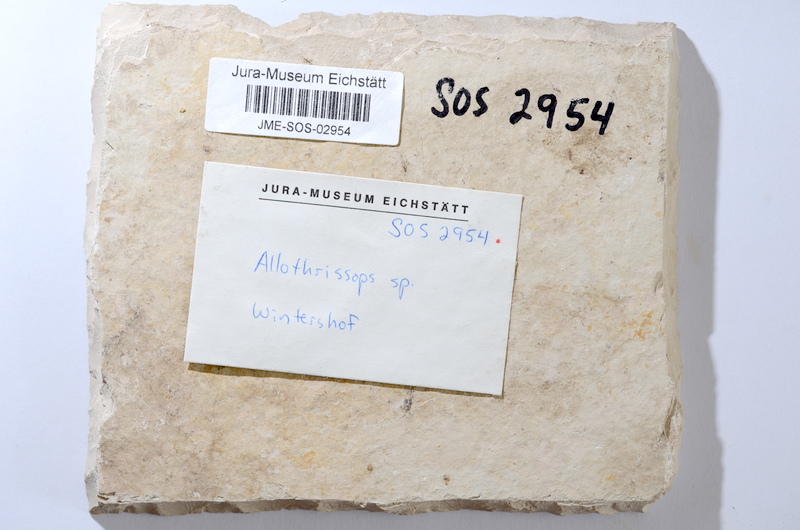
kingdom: Animalia
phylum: Chordata
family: Allothrissopidae
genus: Allothrissops
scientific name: Allothrissops mesogaster
